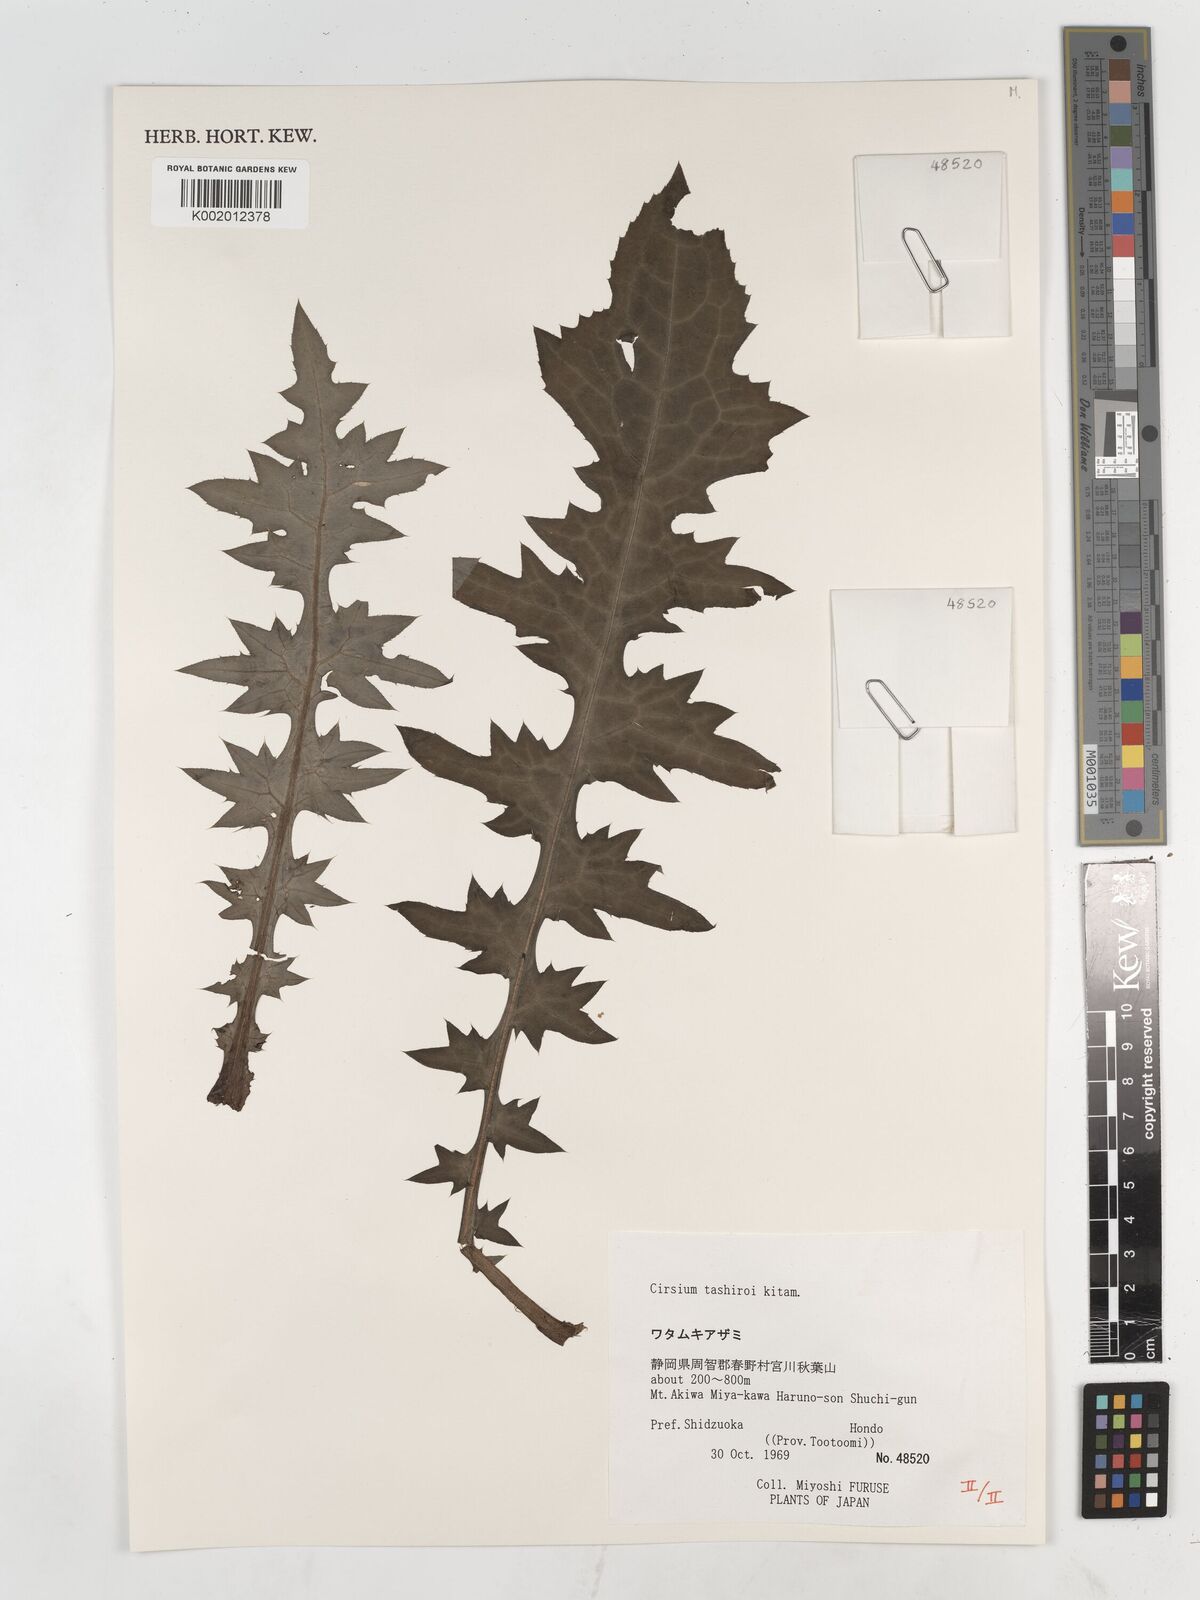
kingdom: Plantae
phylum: Tracheophyta
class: Magnoliopsida
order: Asterales
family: Asteraceae
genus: Cirsium
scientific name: Cirsium tashiroi
